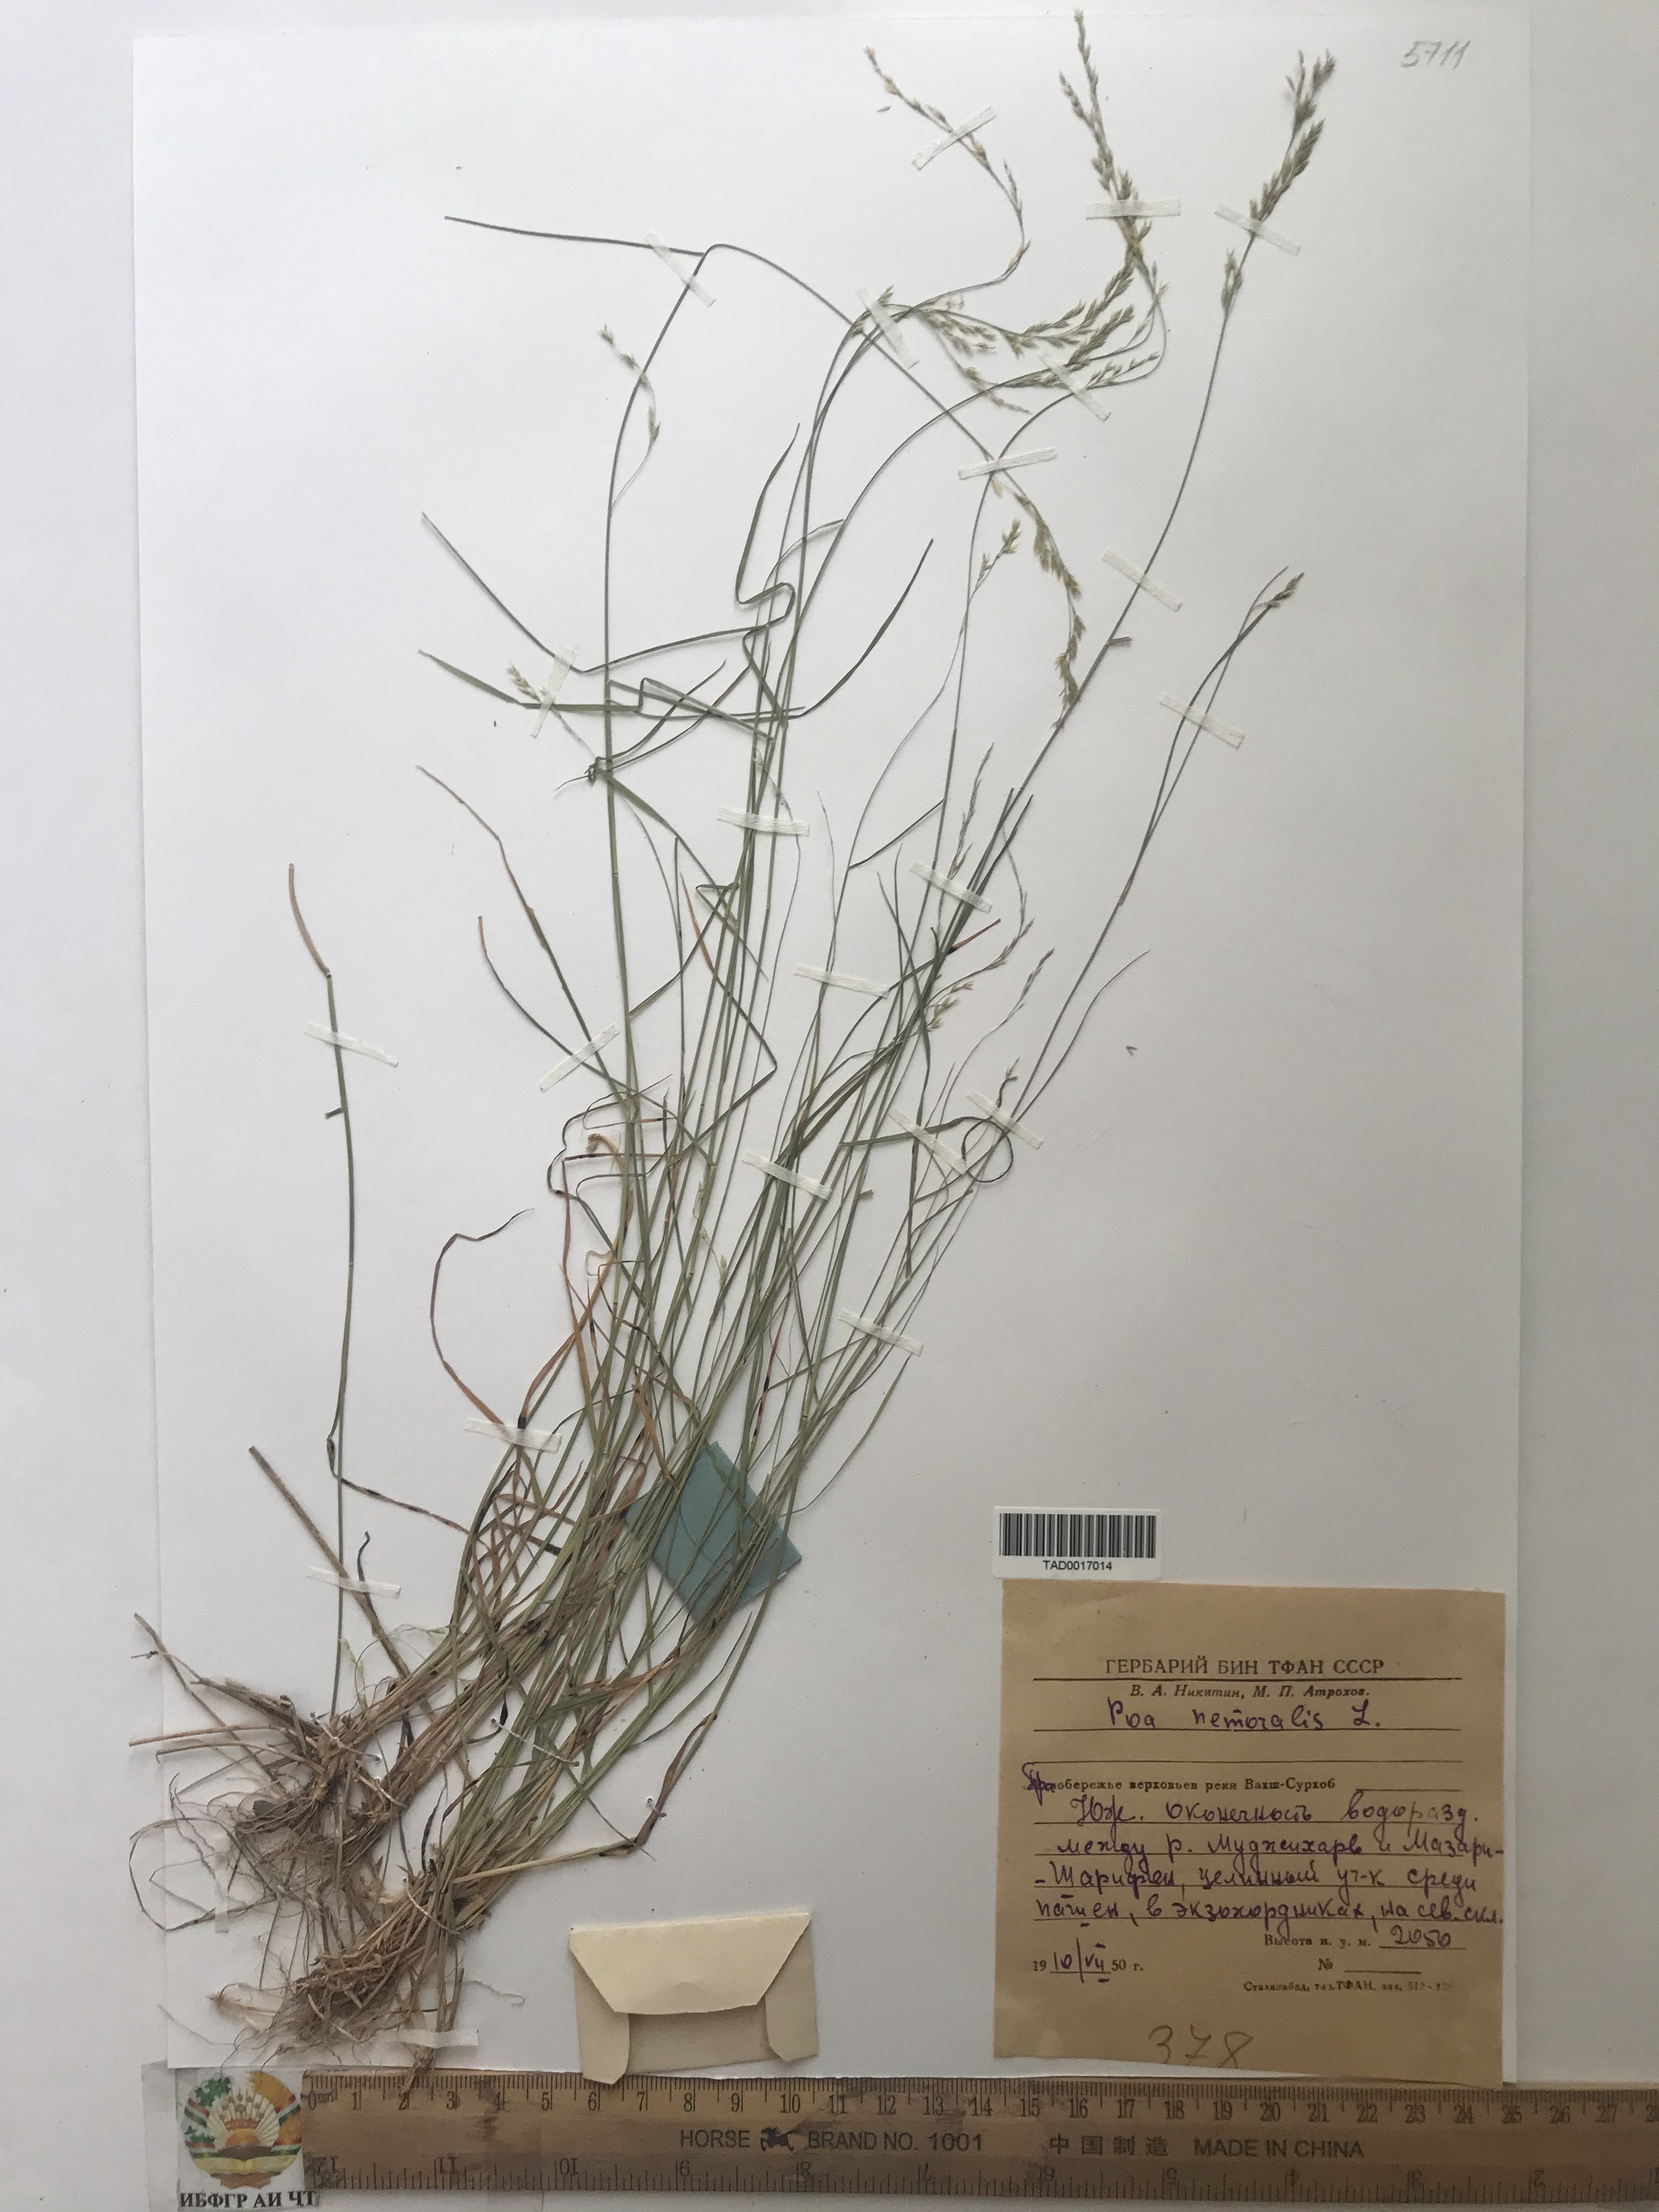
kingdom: Plantae
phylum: Tracheophyta
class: Liliopsida
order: Poales
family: Poaceae
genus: Poa
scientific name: Poa nemoralis
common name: Wood bluegrass
